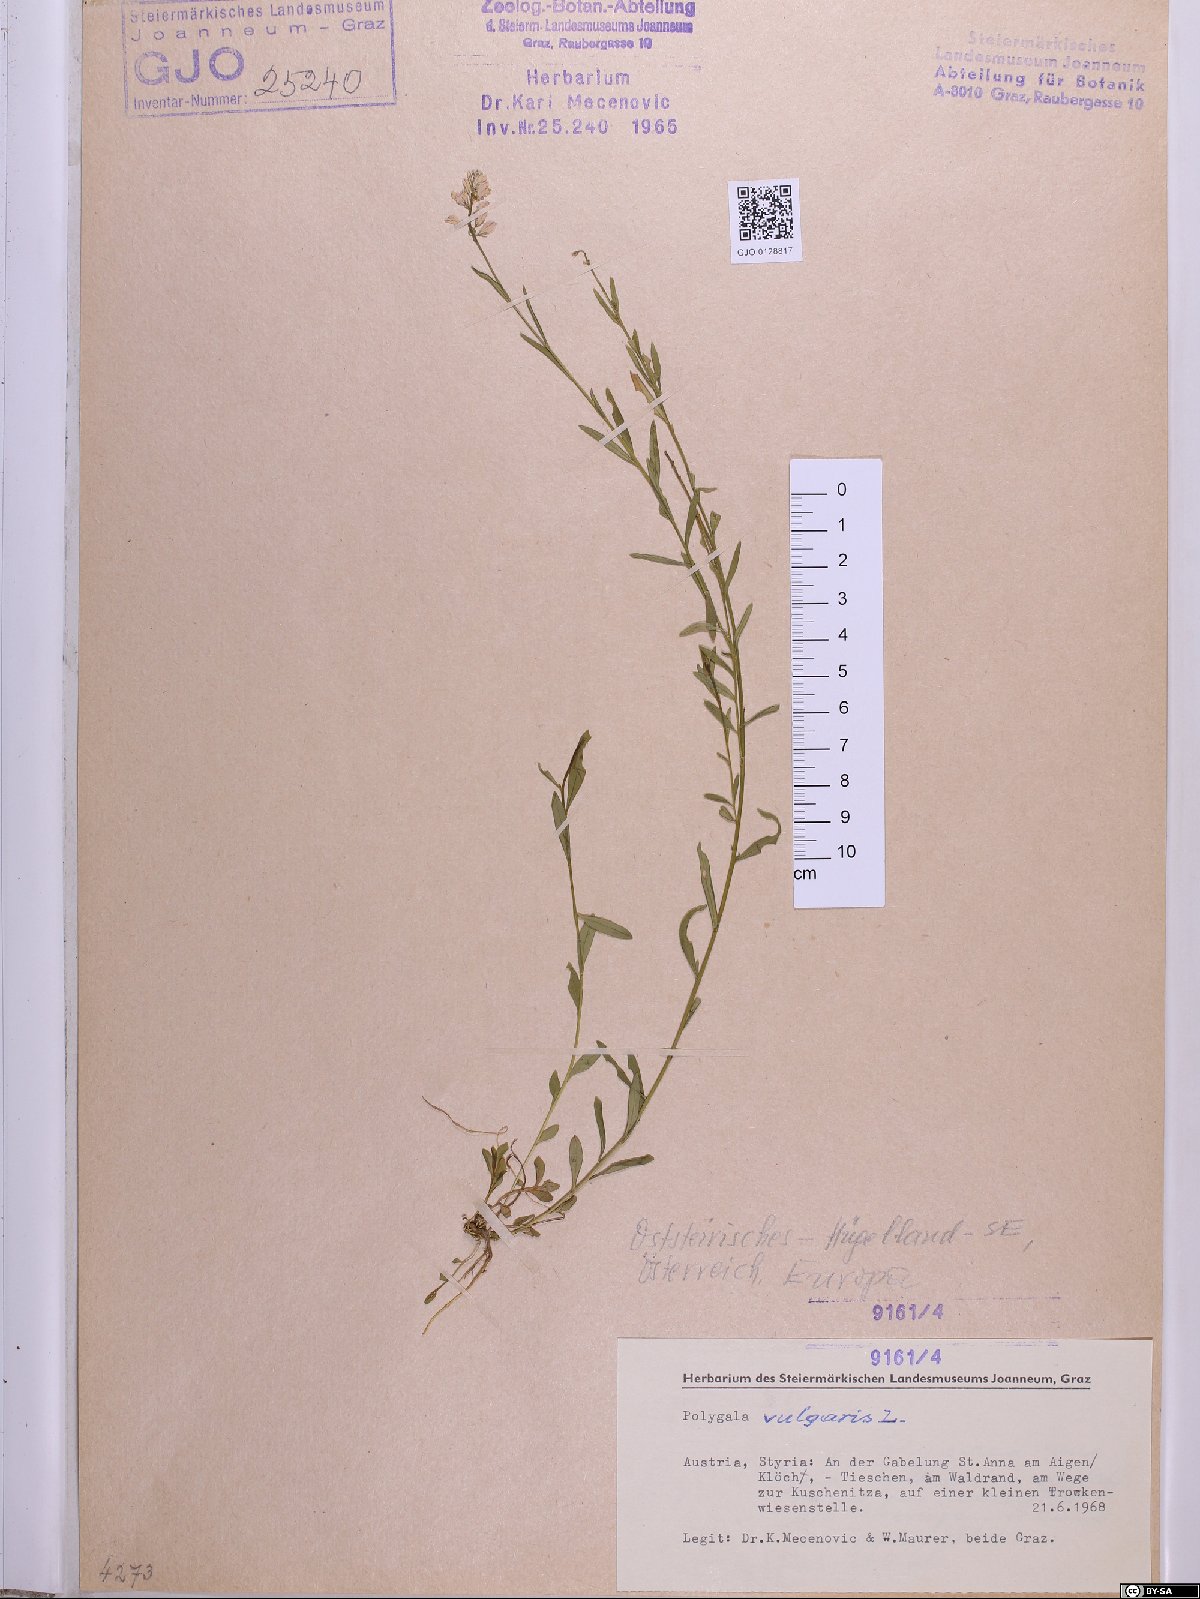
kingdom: Plantae
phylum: Tracheophyta
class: Magnoliopsida
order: Fabales
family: Polygalaceae
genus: Polygala
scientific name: Polygala vulgaris
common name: Common milkwort
